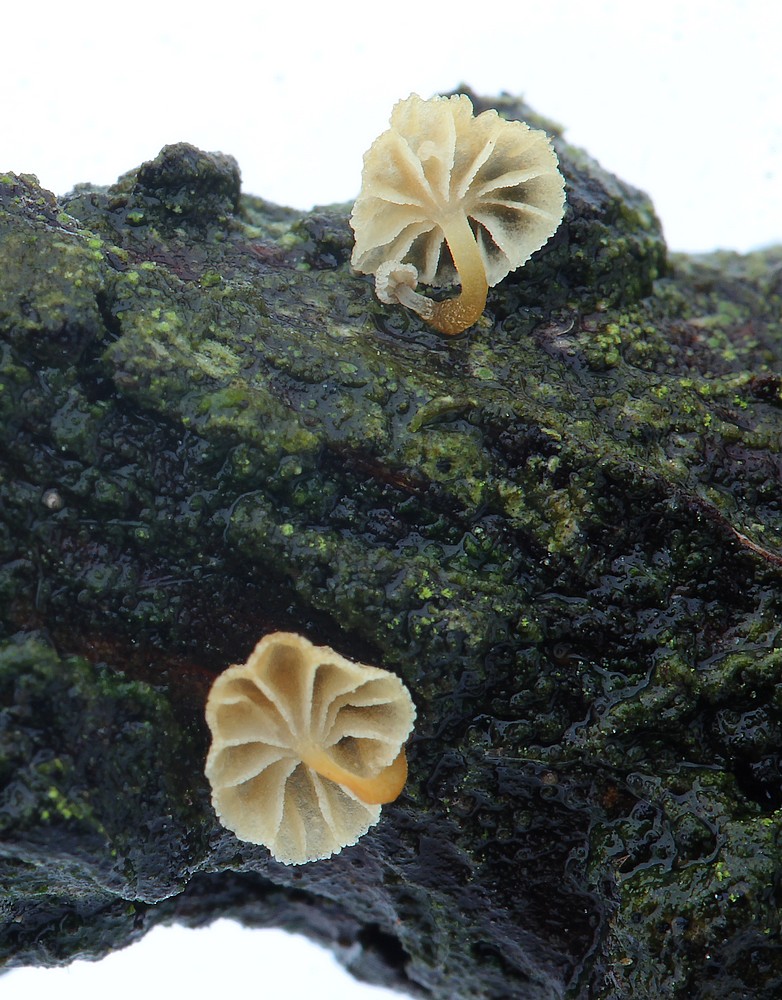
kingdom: Fungi
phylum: Basidiomycota
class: Agaricomycetes
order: Agaricales
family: Mycenaceae
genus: Mycena
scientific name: Mycena juniperina
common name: ene-Huesvamp
